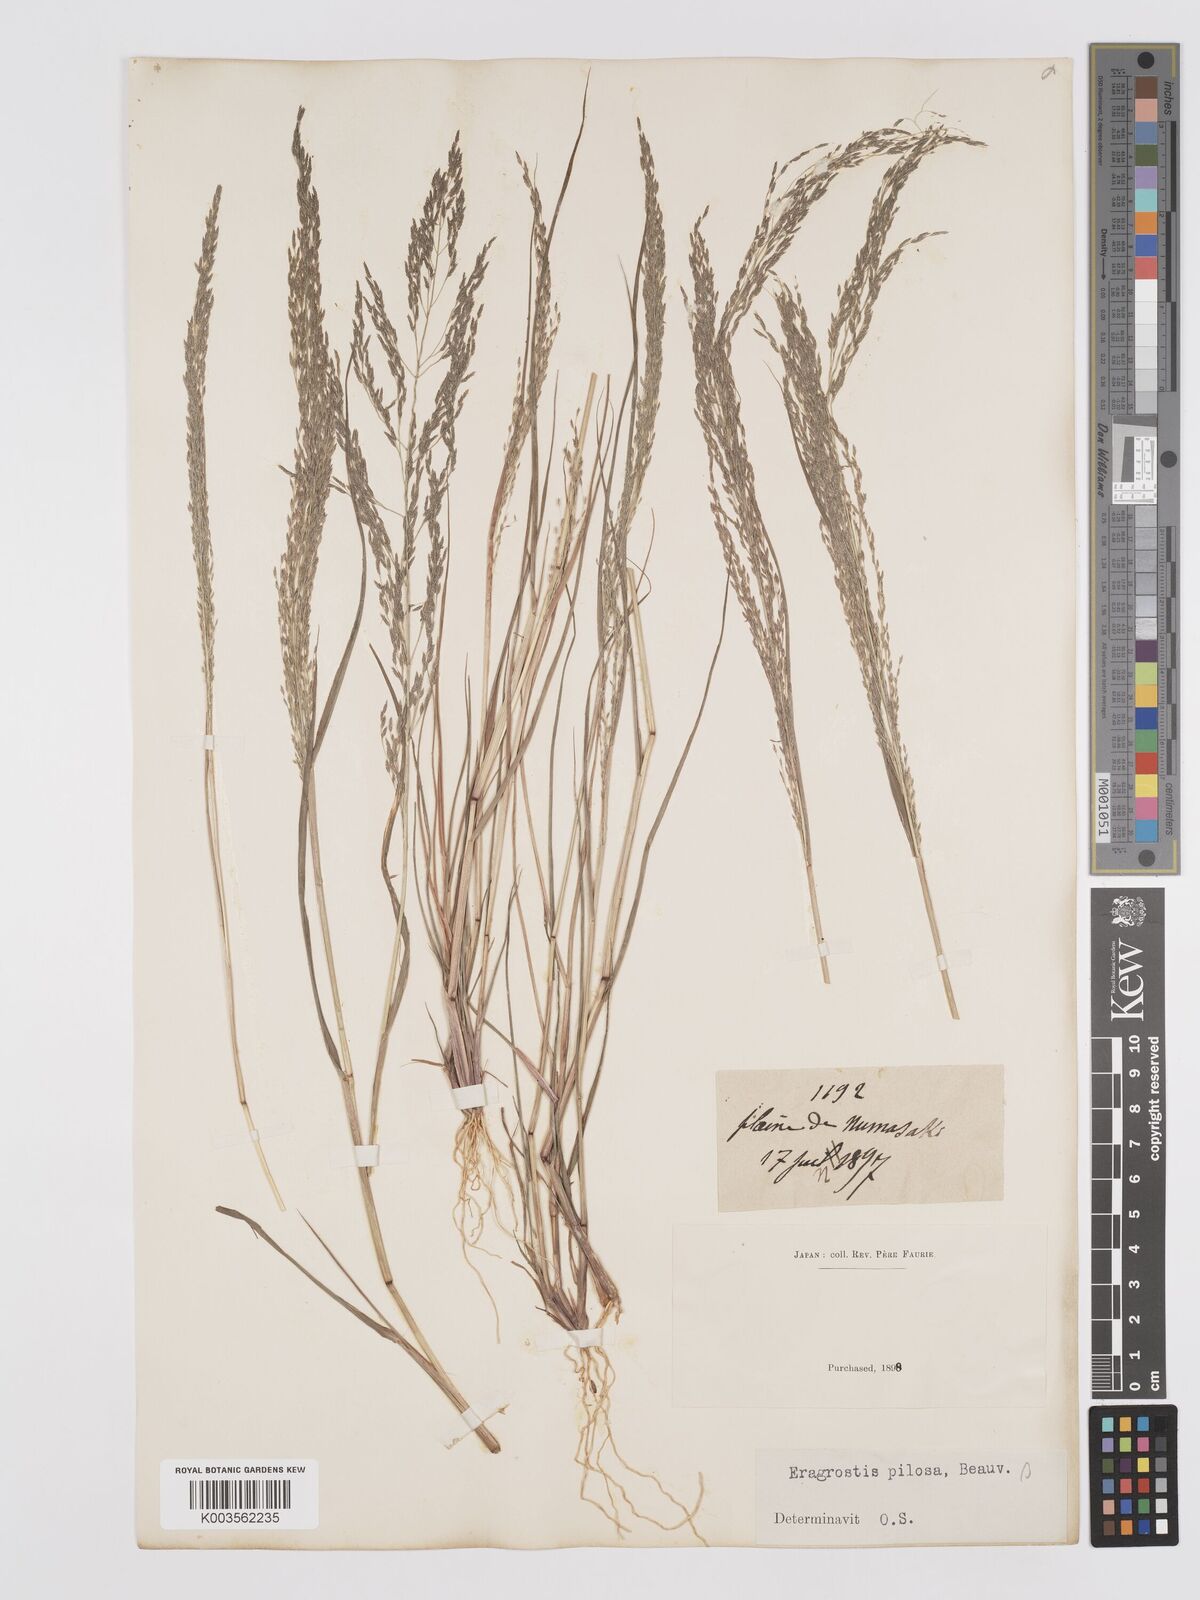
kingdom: Plantae
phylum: Tracheophyta
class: Liliopsida
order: Poales
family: Poaceae
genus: Eragrostis
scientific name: Eragrostis pilosa
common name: Indian lovegrass
